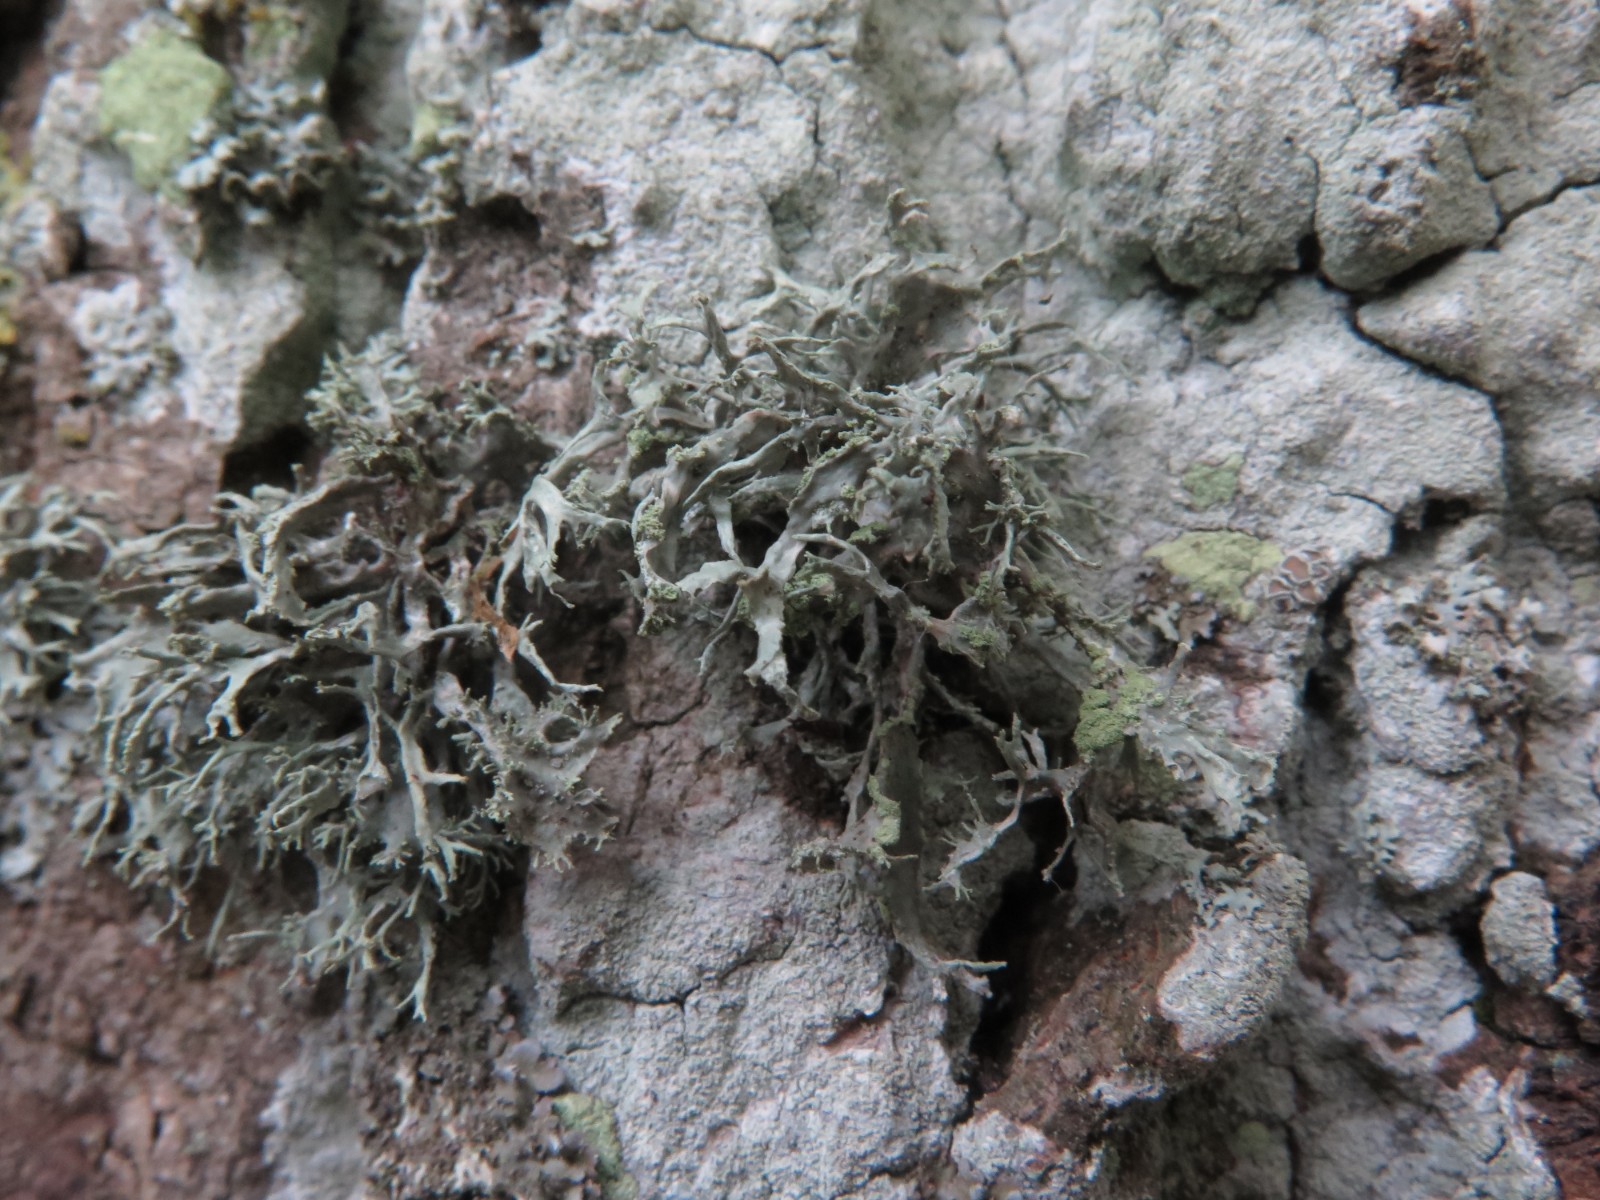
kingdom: Fungi
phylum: Ascomycota
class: Lecanoromycetes
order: Lecanorales
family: Ramalinaceae
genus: Ramalina
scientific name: Ramalina farinacea
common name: melet grenlav
